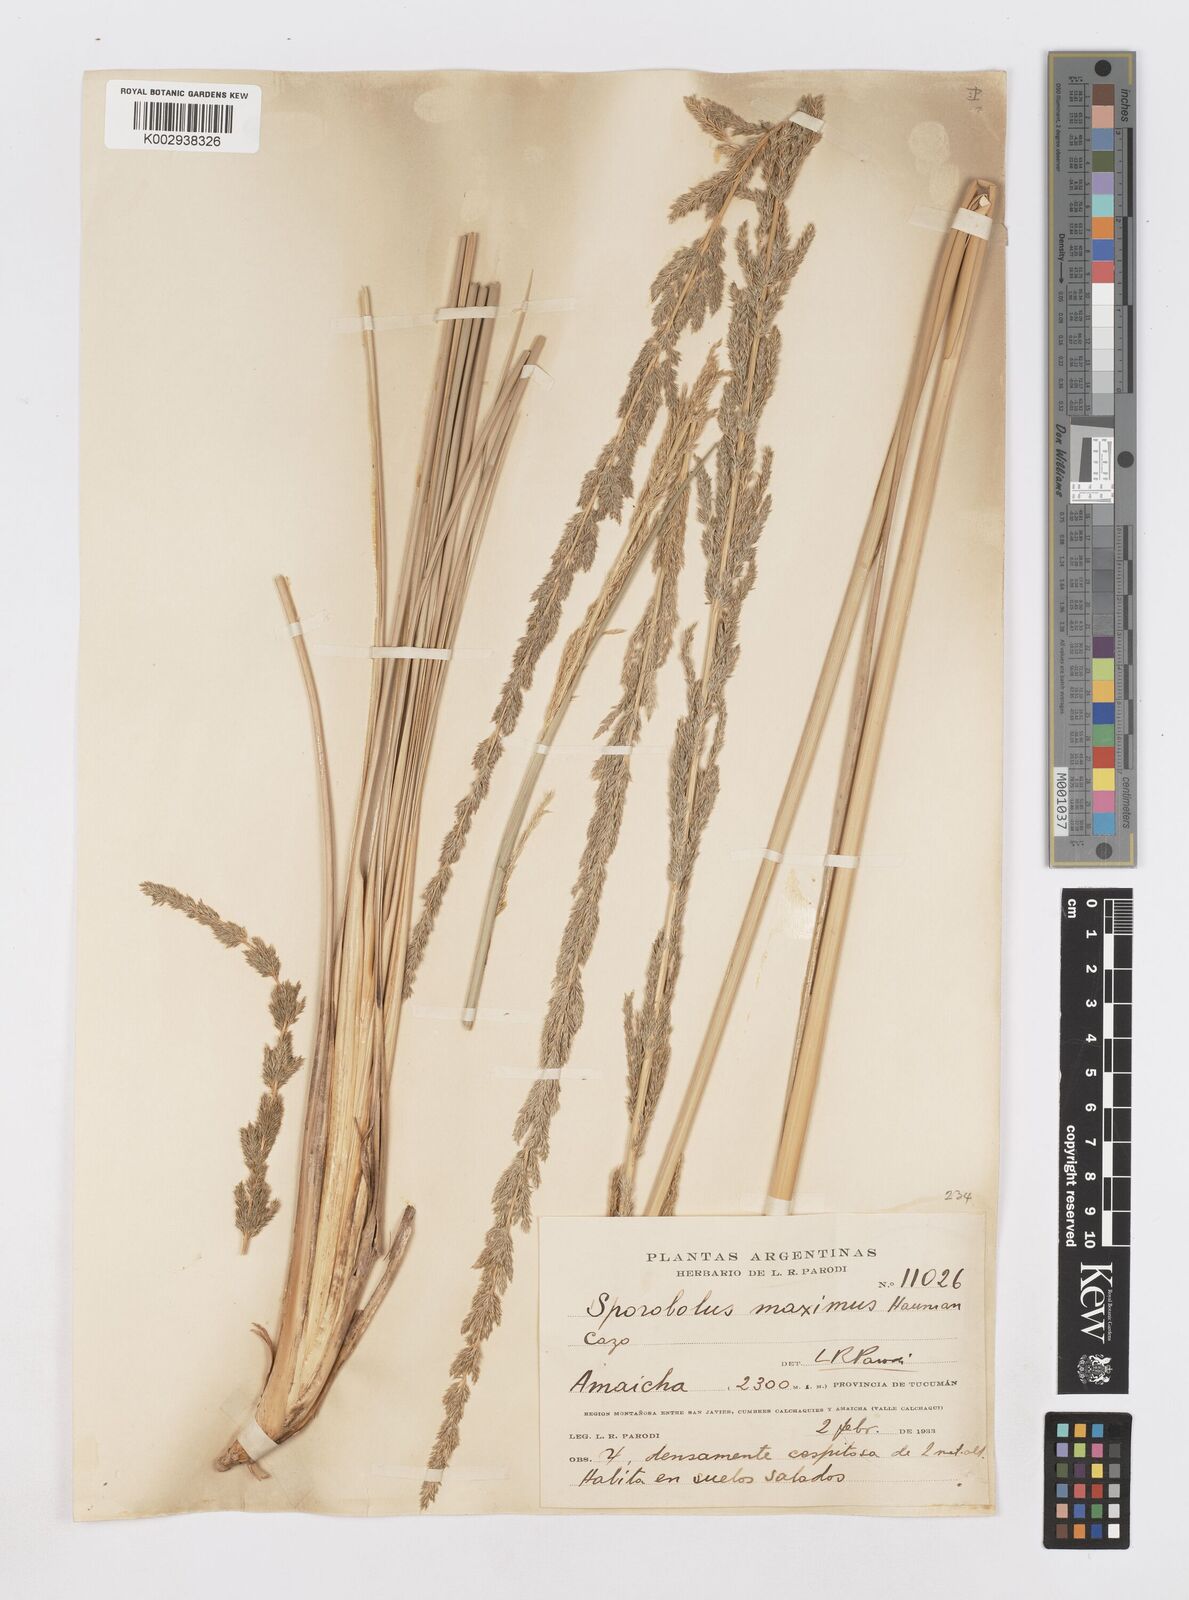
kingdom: Plantae
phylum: Tracheophyta
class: Liliopsida
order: Poales
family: Poaceae
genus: Sporobolus
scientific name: Sporobolus maximus
